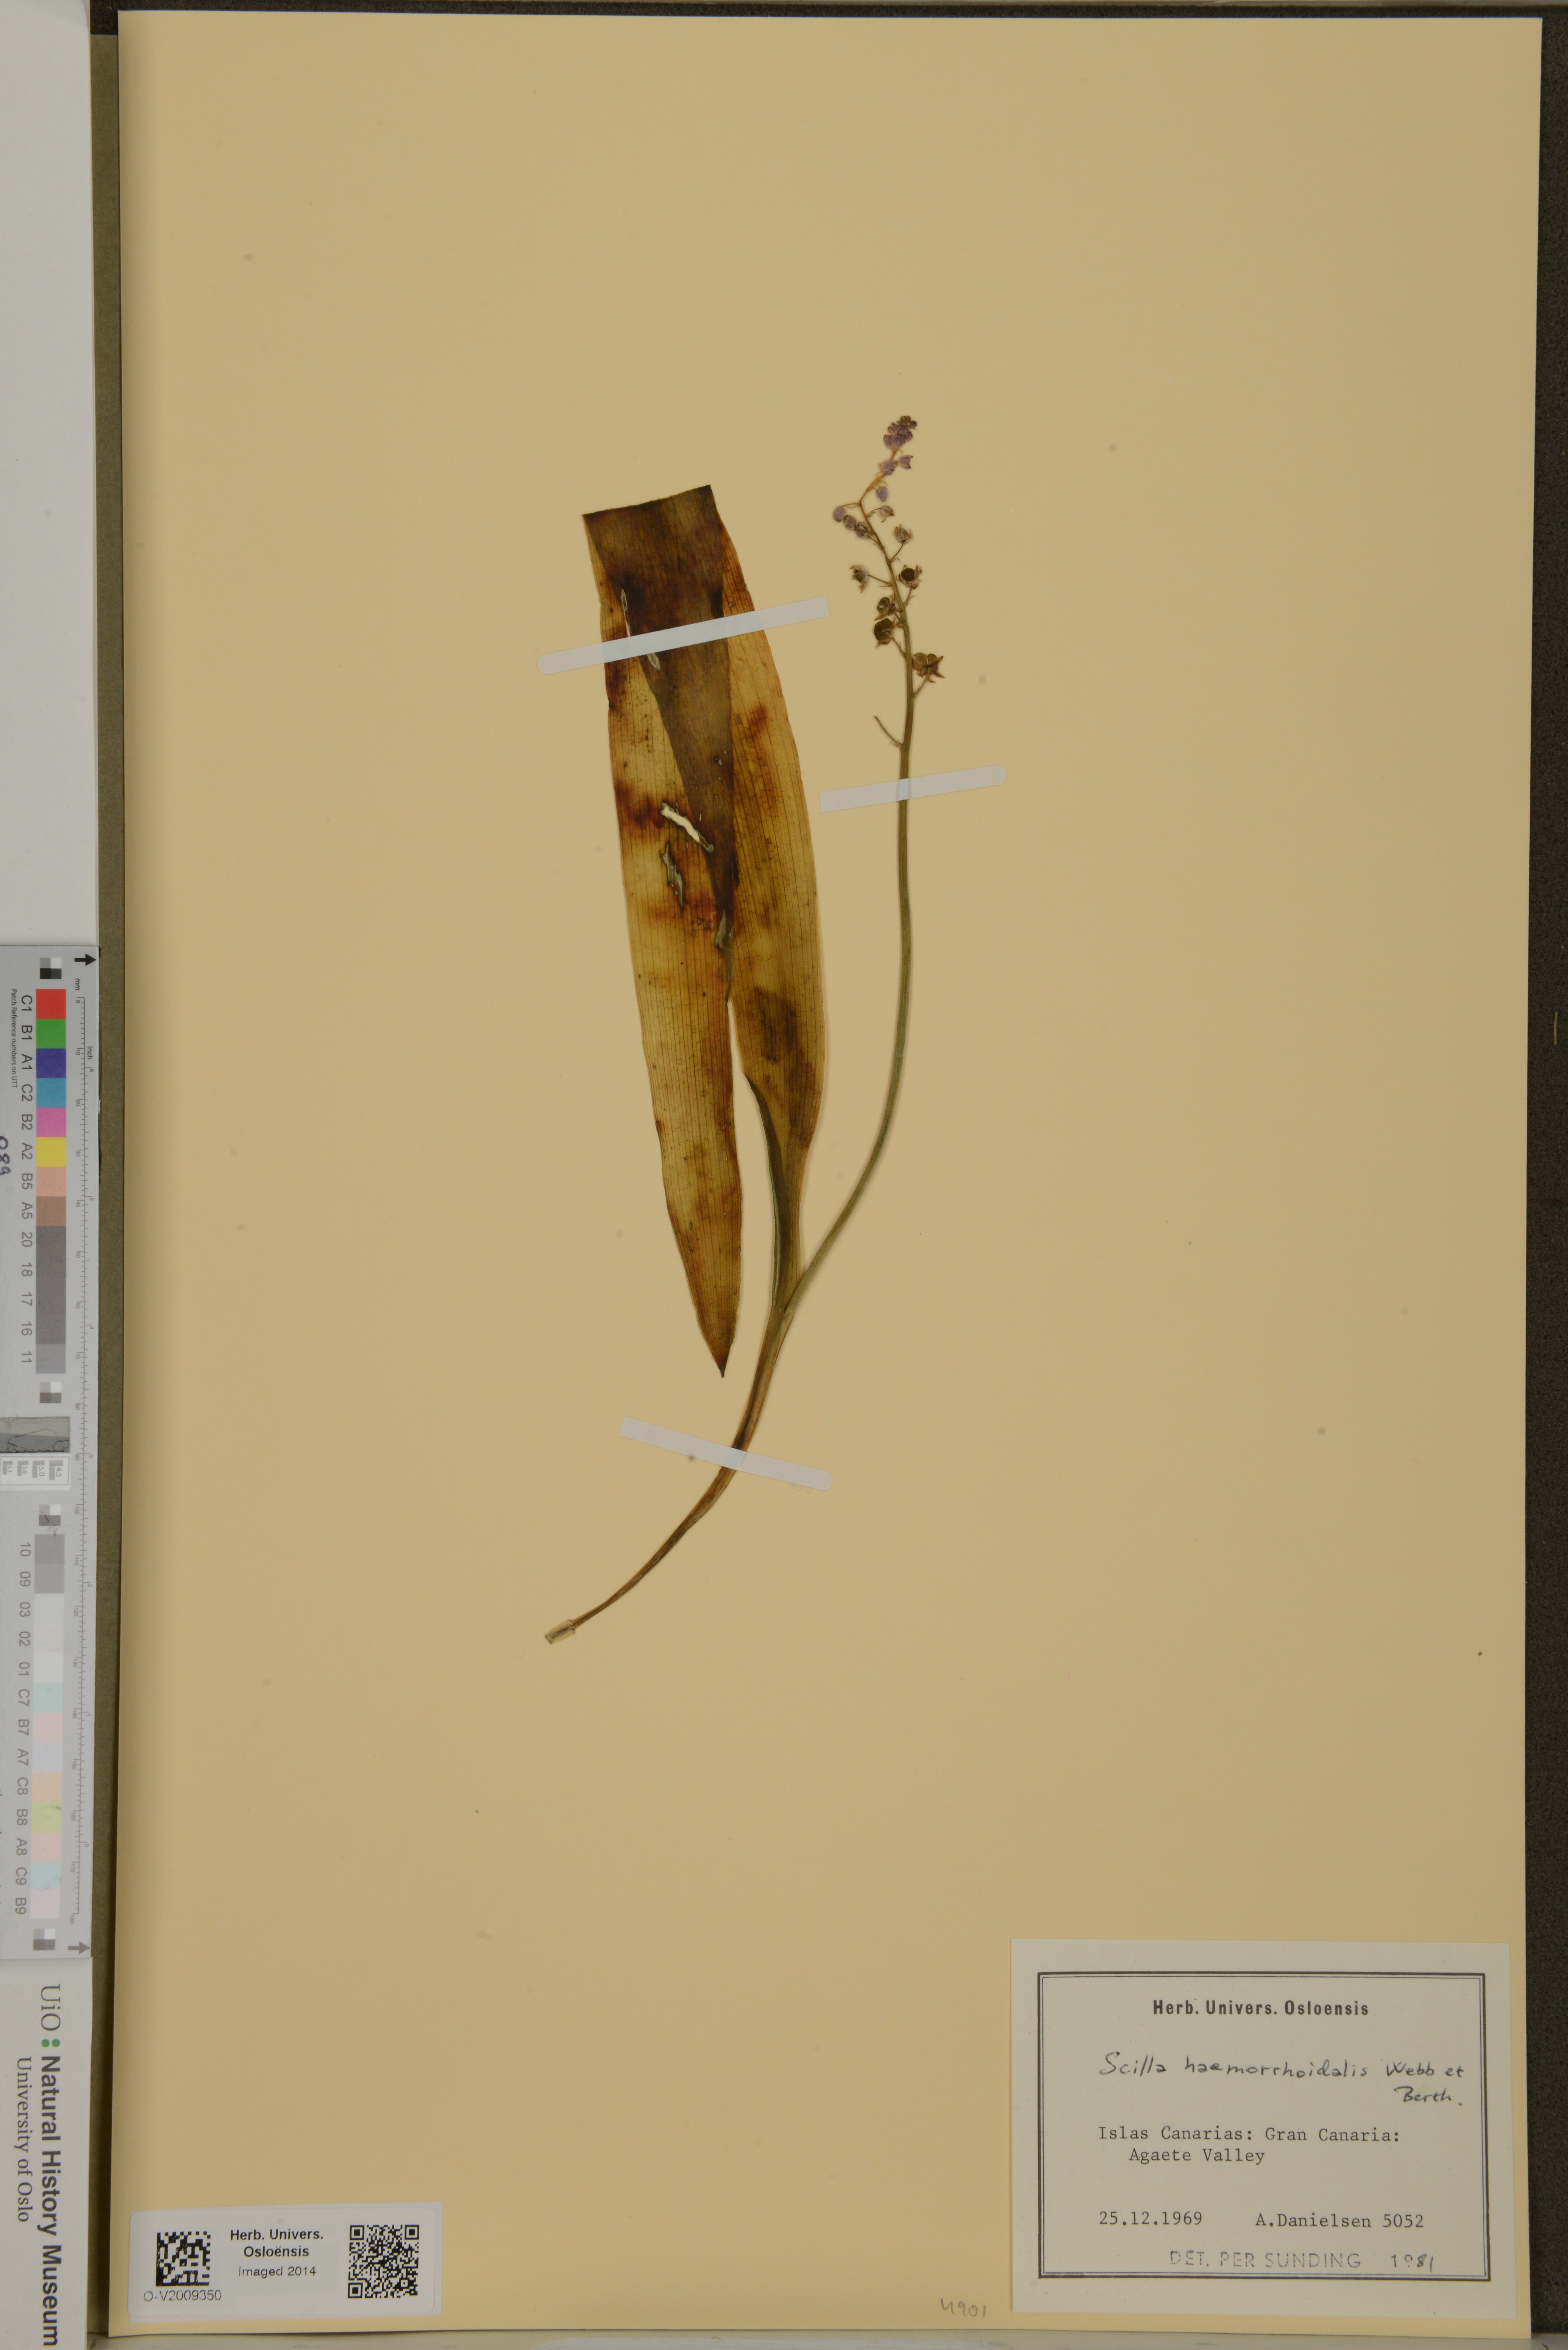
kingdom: Plantae
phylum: Tracheophyta
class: Liliopsida
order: Asparagales
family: Asparagaceae
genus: Scilla
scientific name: Scilla haemorrhoidalis
